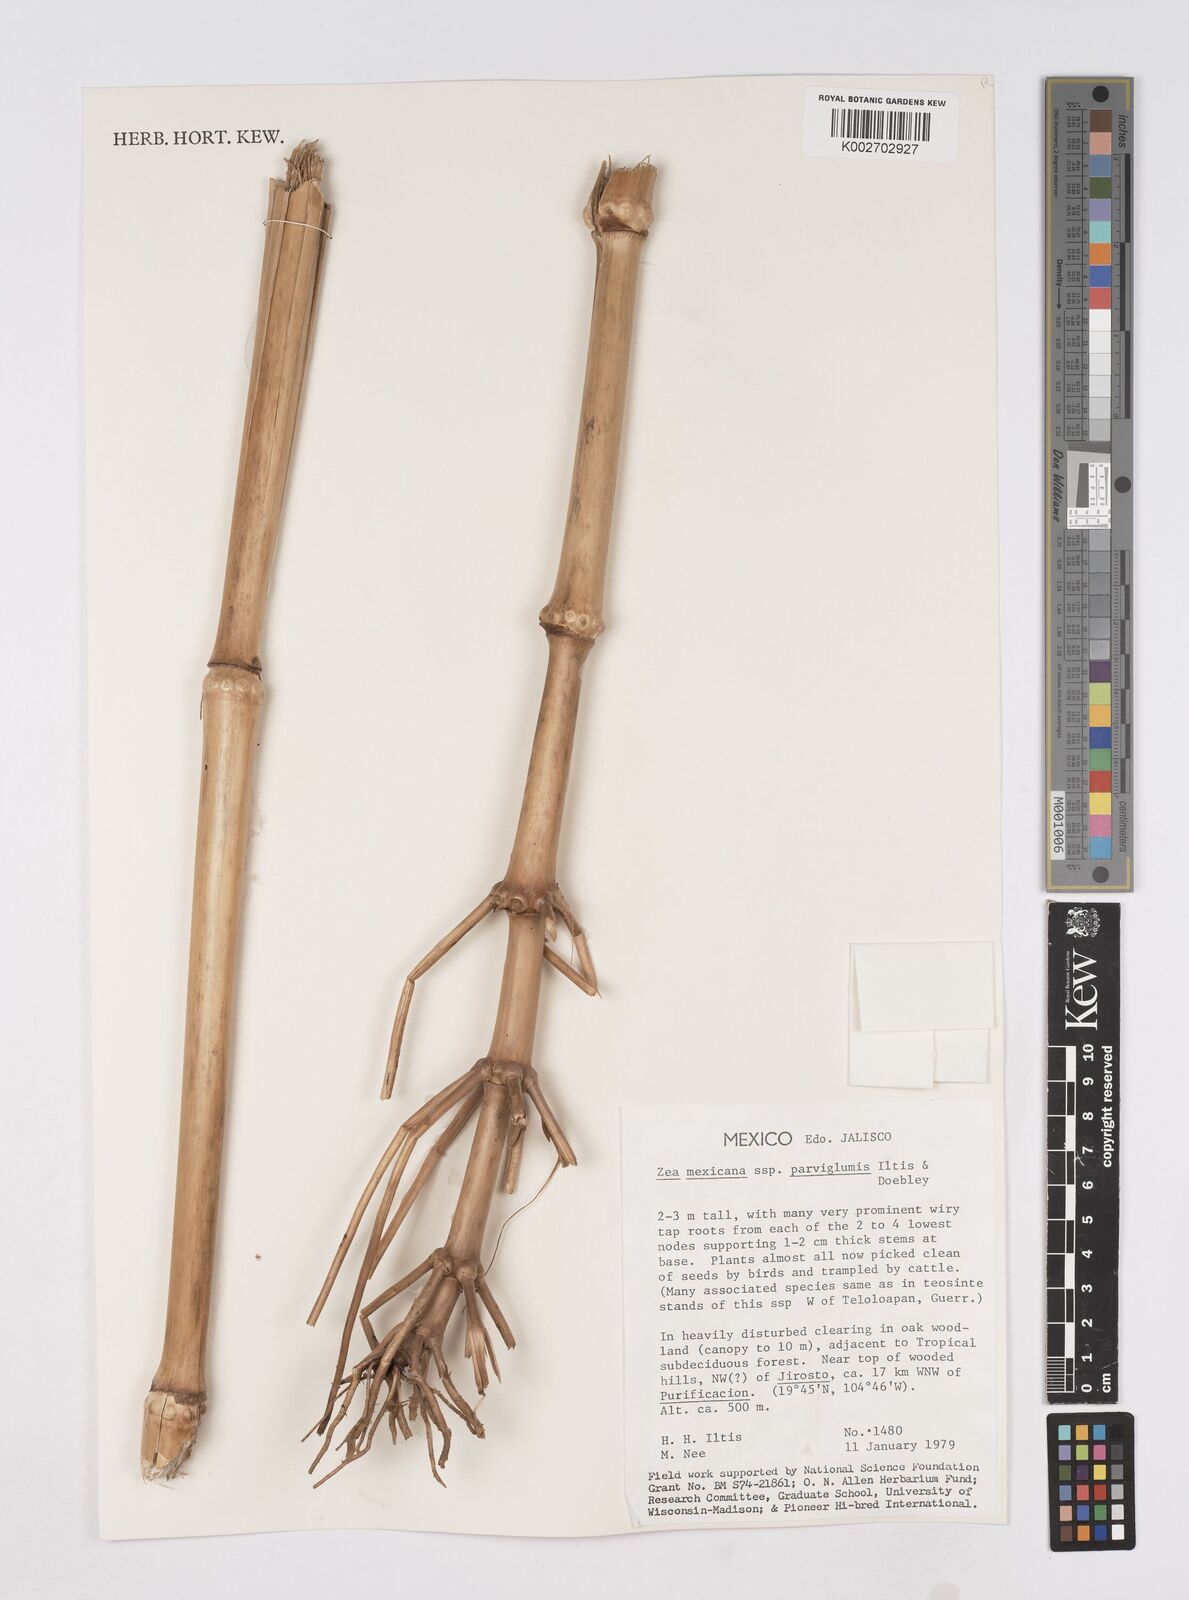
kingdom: Plantae
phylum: Tracheophyta
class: Liliopsida
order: Poales
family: Poaceae
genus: Zea
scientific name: Zea mexicana
